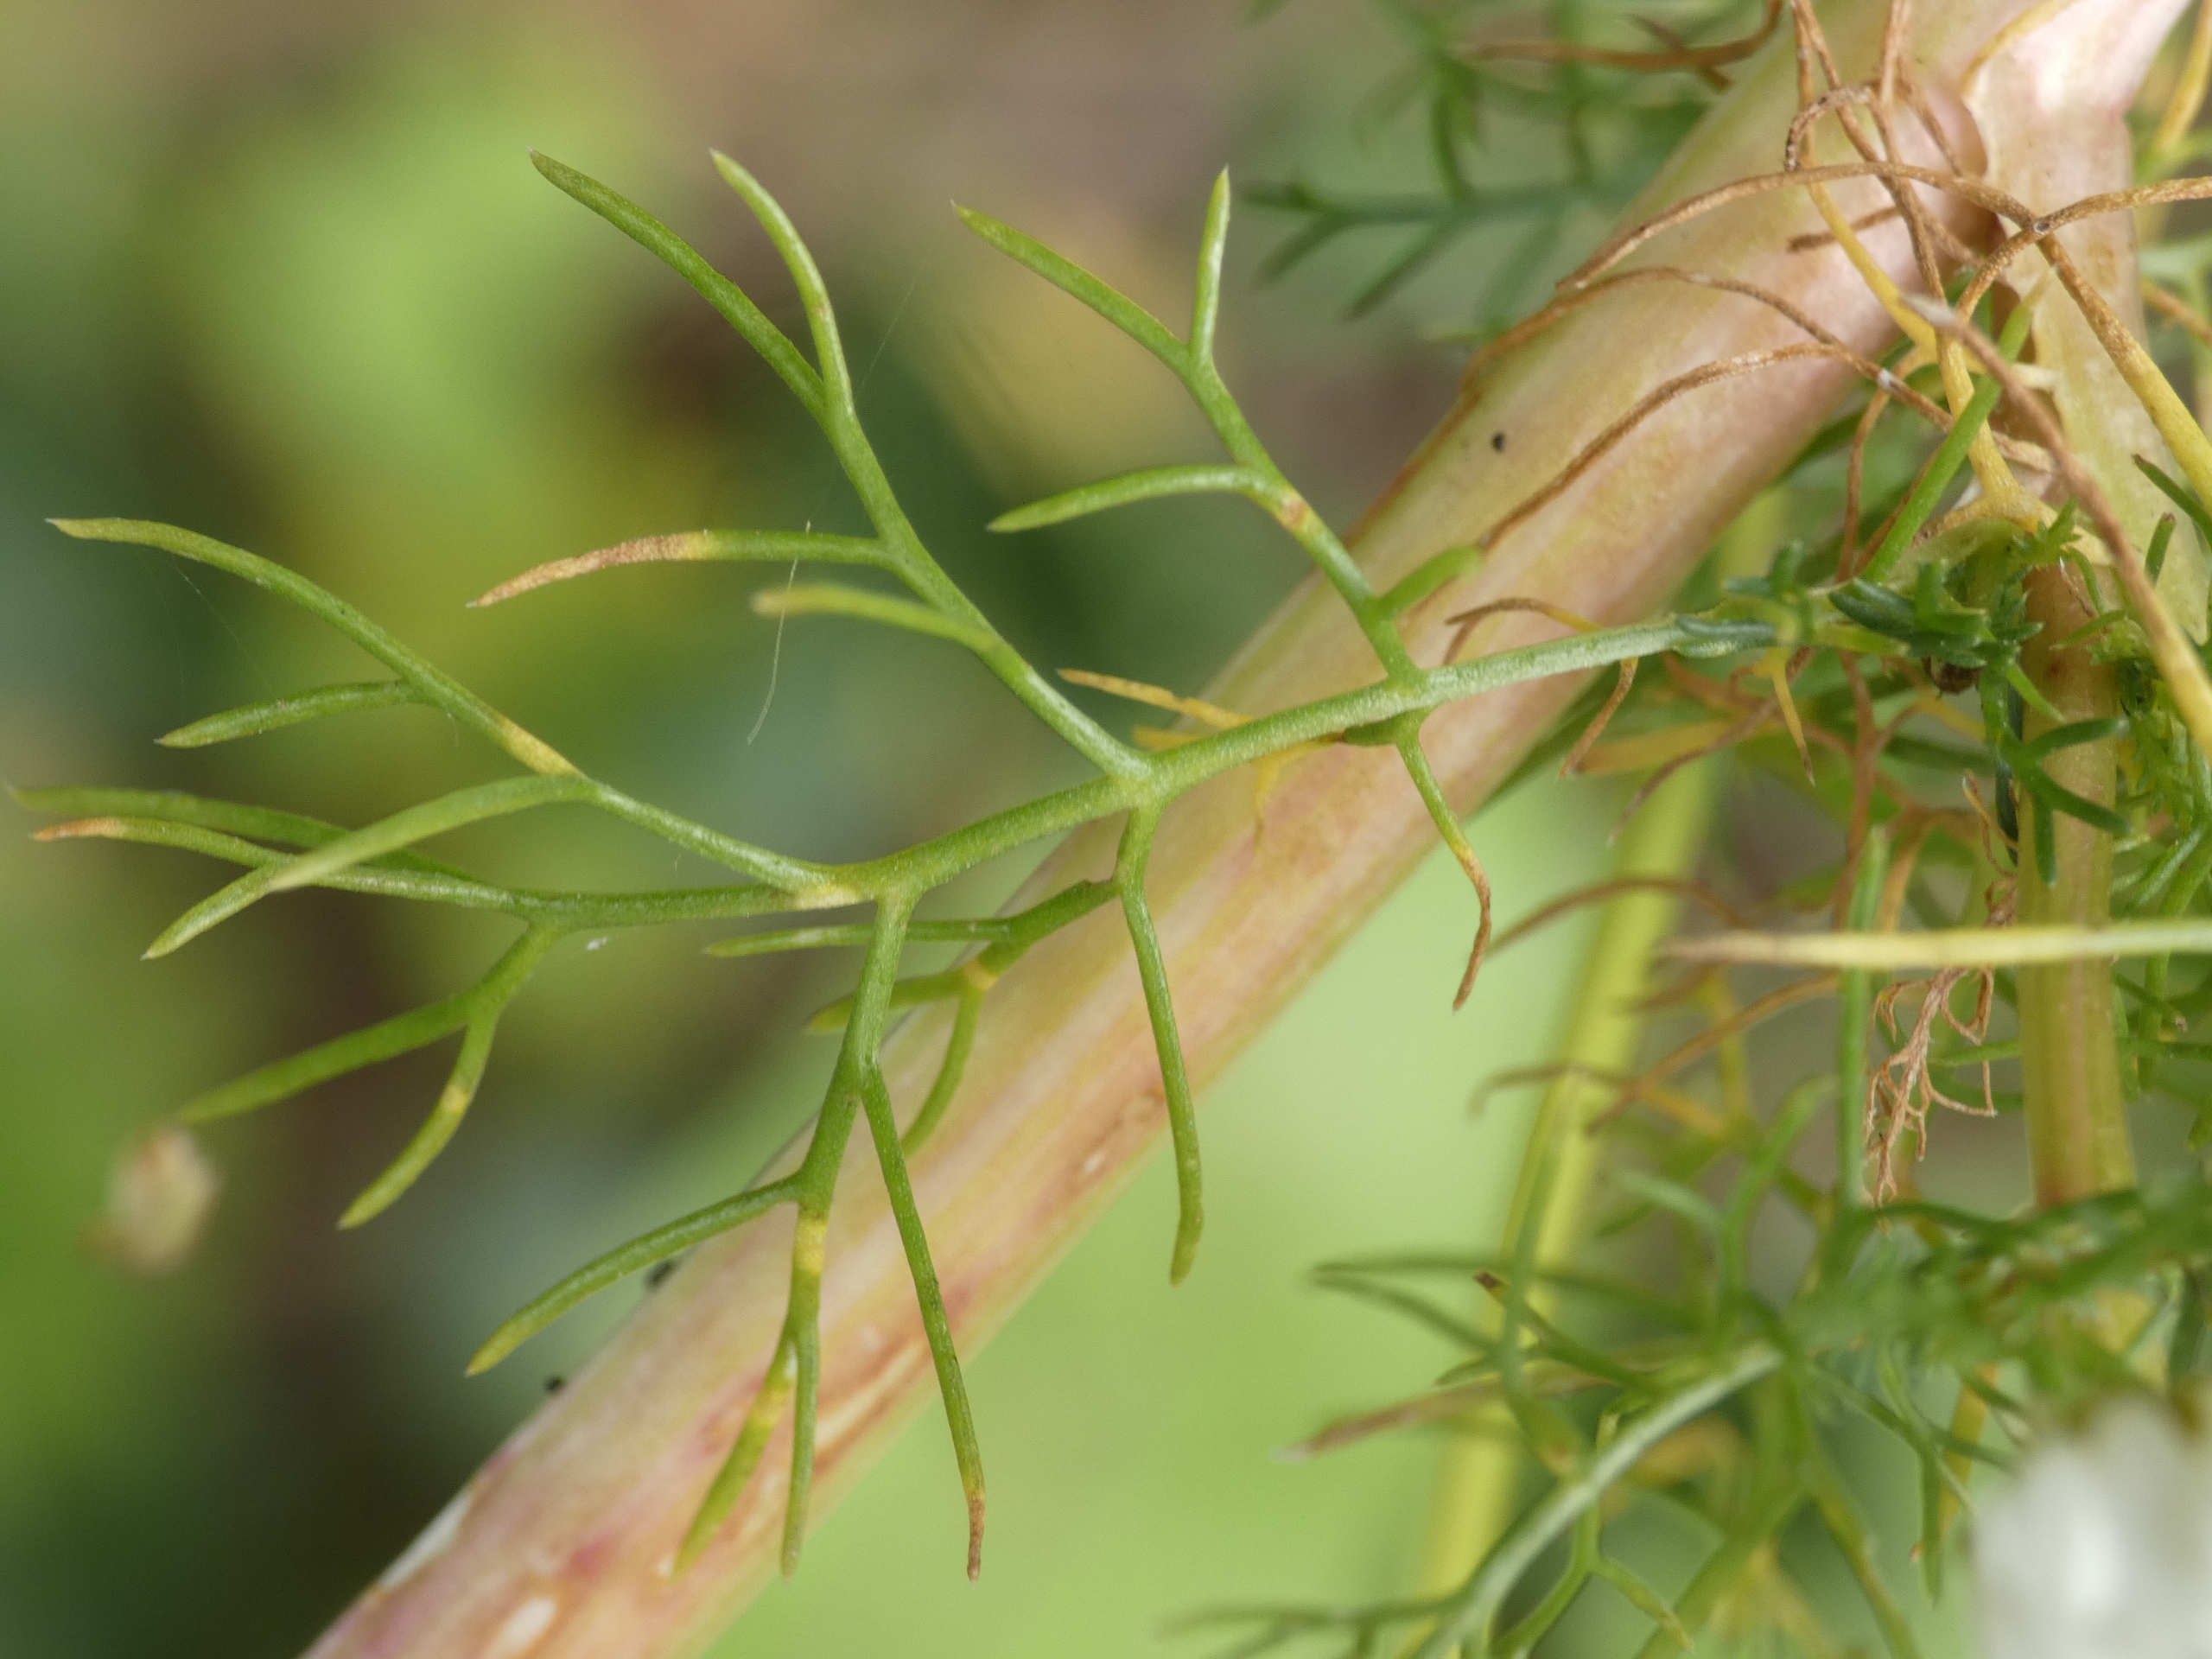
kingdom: Plantae
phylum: Tracheophyta
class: Magnoliopsida
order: Asterales
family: Asteraceae
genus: Tripleurospermum
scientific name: Tripleurospermum inodorum
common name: Lugtløs kamille
